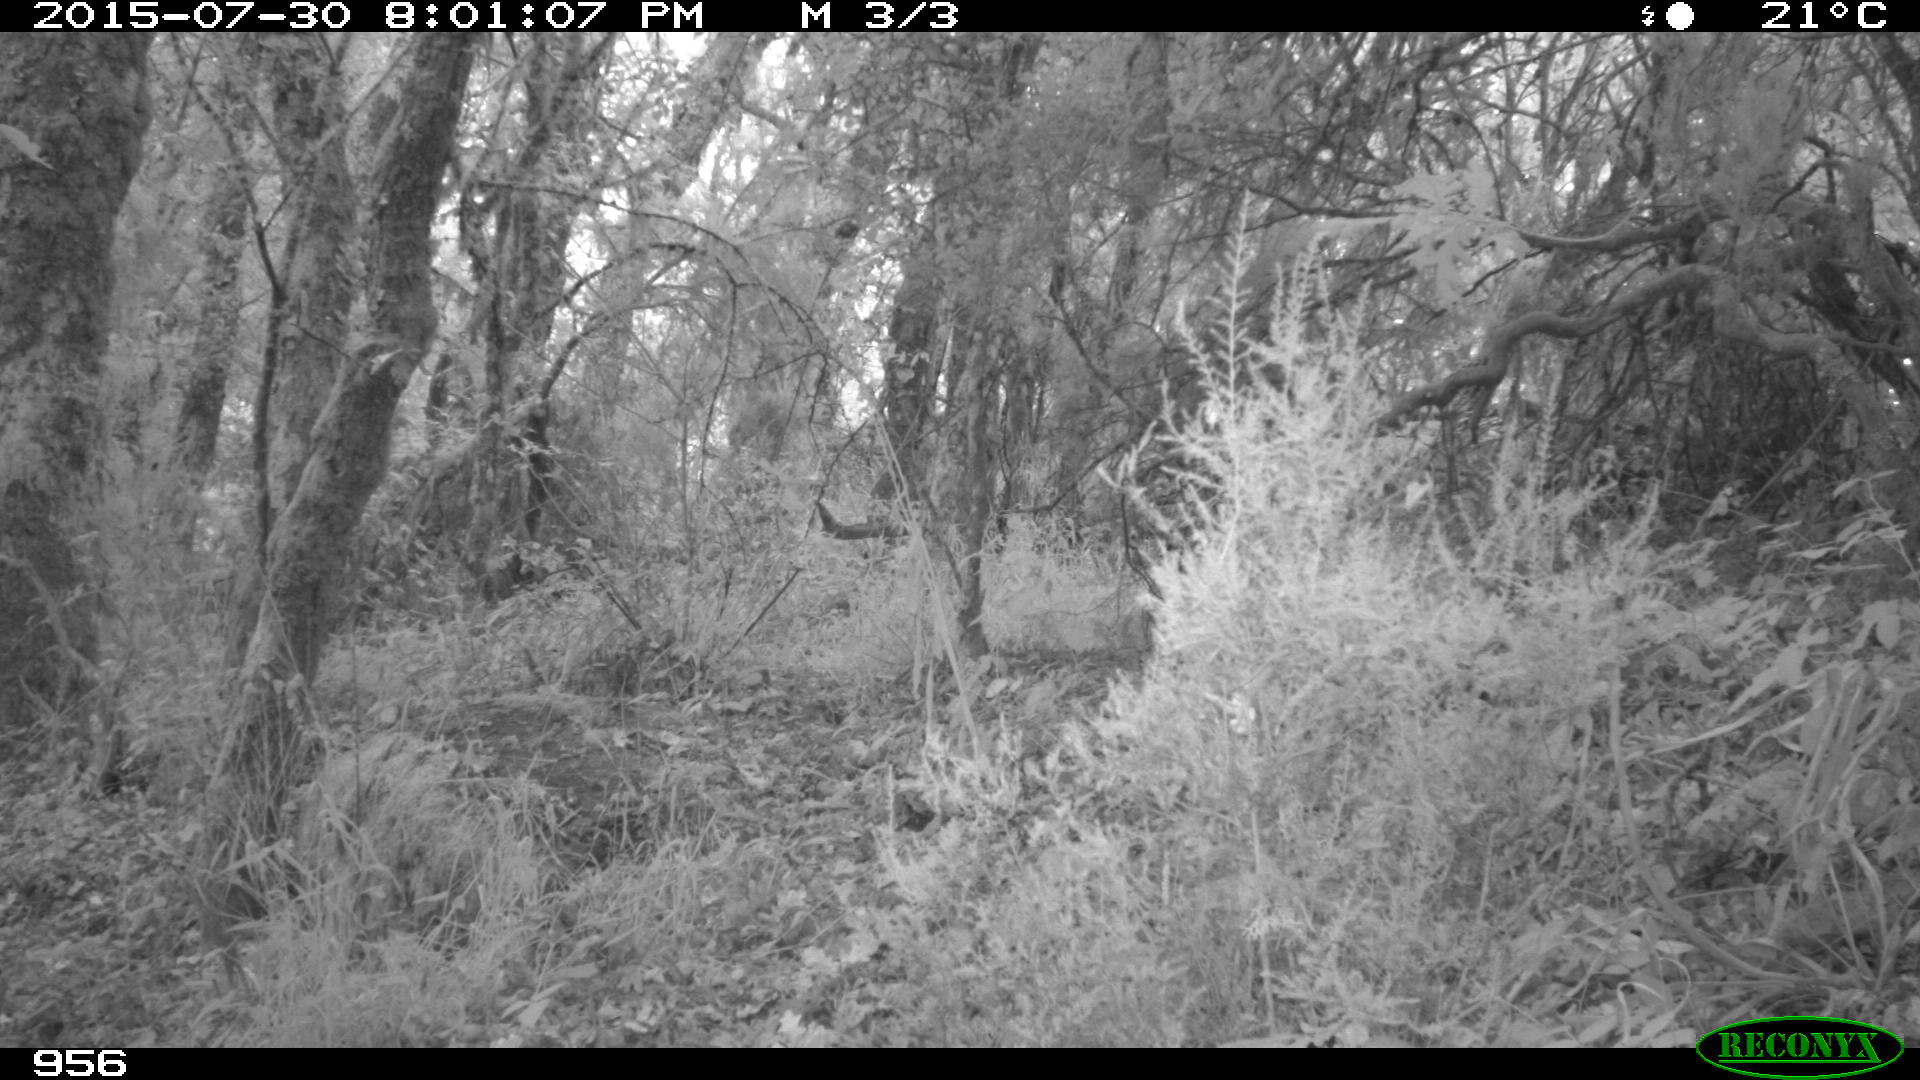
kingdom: Animalia
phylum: Chordata
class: Mammalia
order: Artiodactyla
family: Cervidae
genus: Capreolus
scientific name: Capreolus capreolus
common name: Western roe deer
